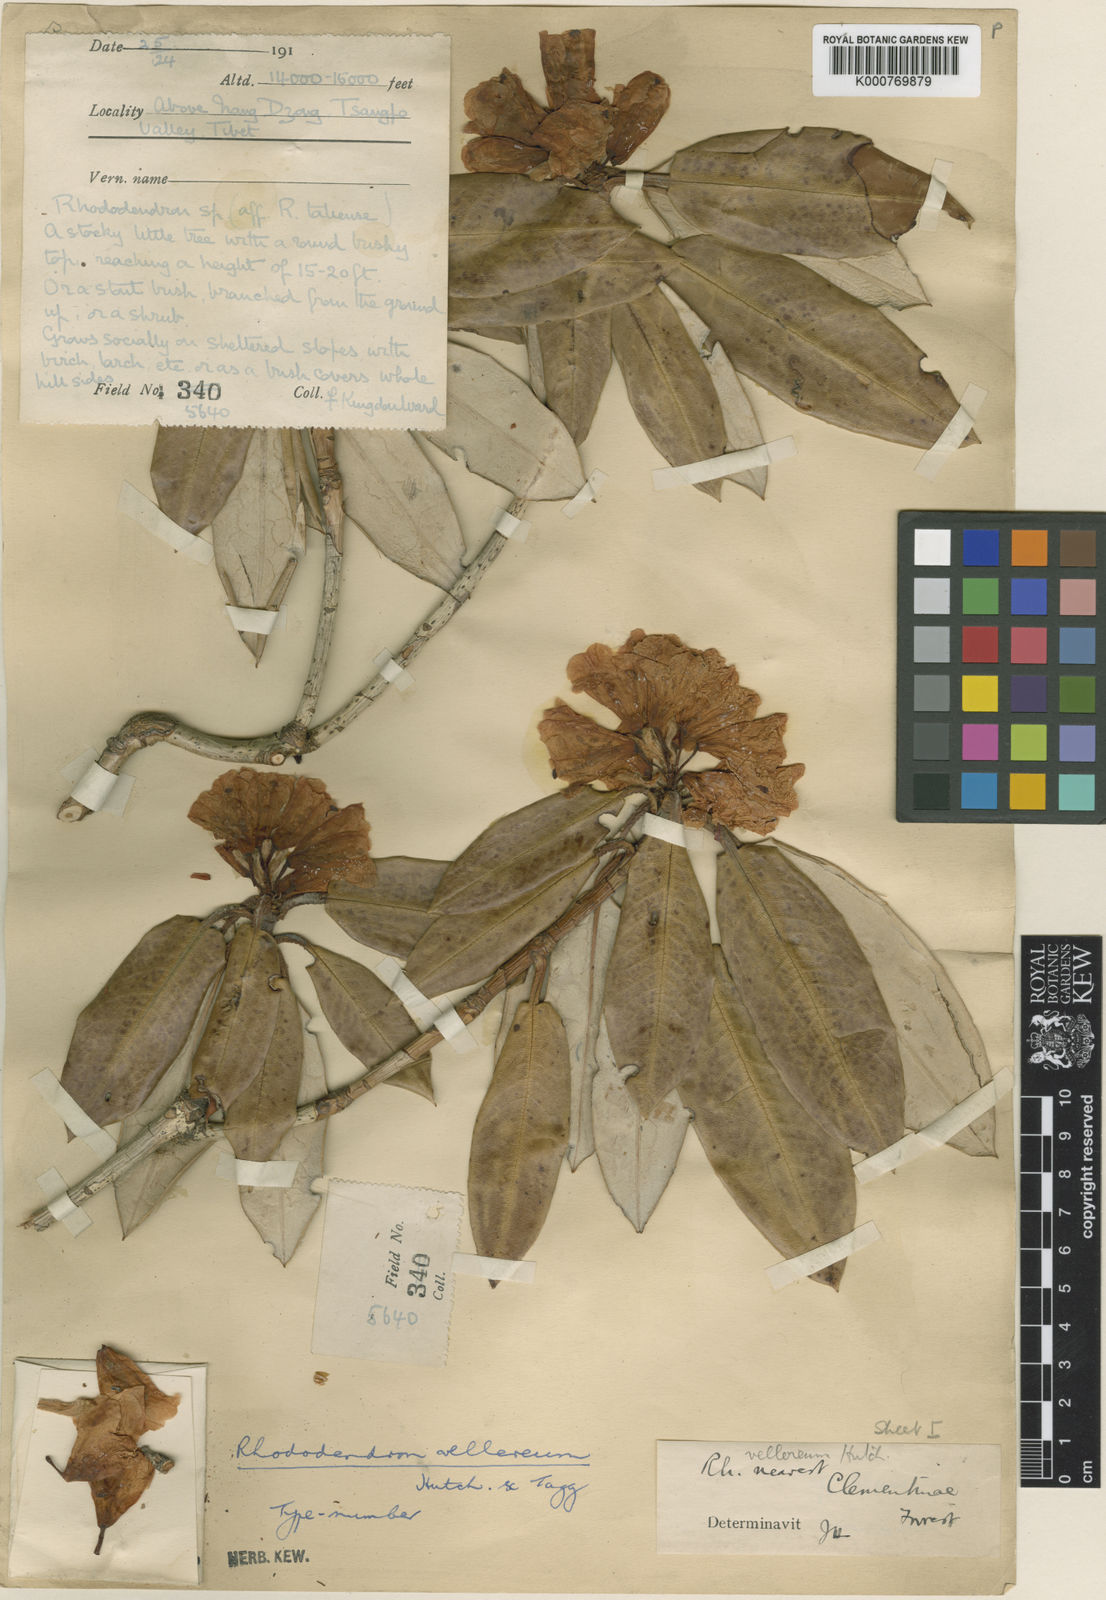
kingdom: Plantae
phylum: Tracheophyta
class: Magnoliopsida
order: Ericales
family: Ericaceae
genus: Rhododendron
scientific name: Rhododendron principis
